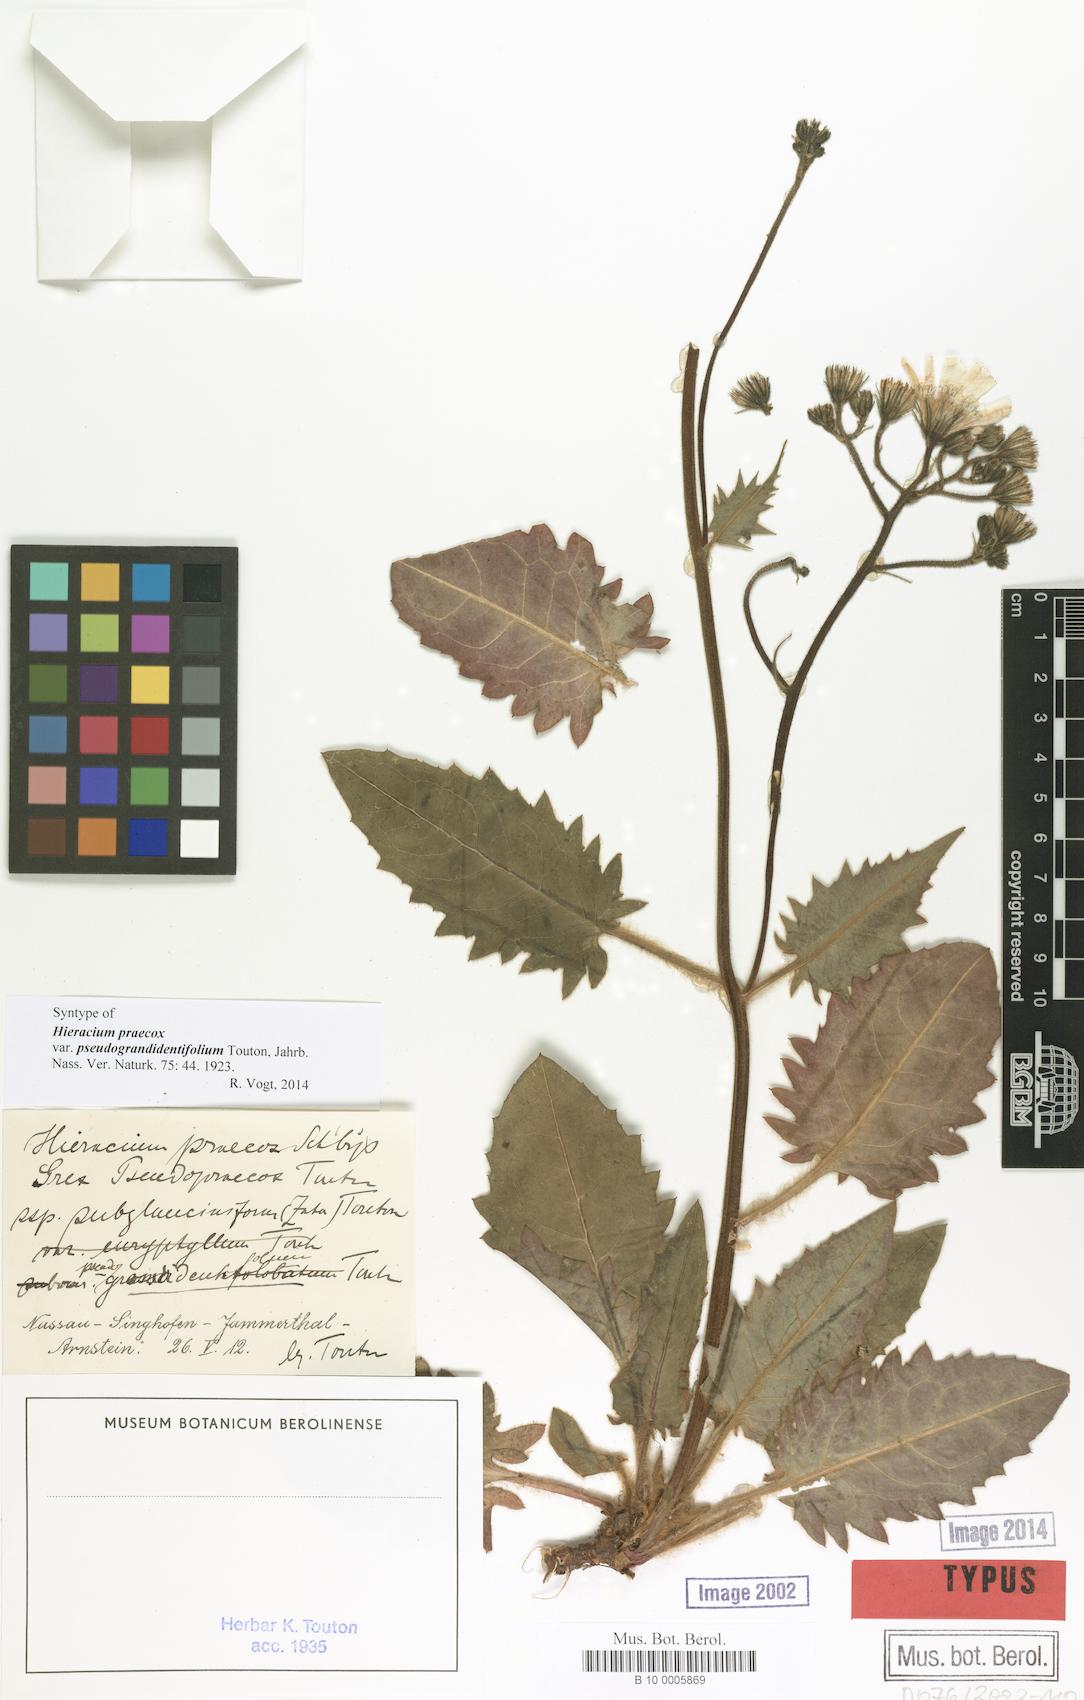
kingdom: Plantae
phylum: Tracheophyta
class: Magnoliopsida
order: Asterales
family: Asteraceae
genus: Hieracium
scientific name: Hieracium praecox
